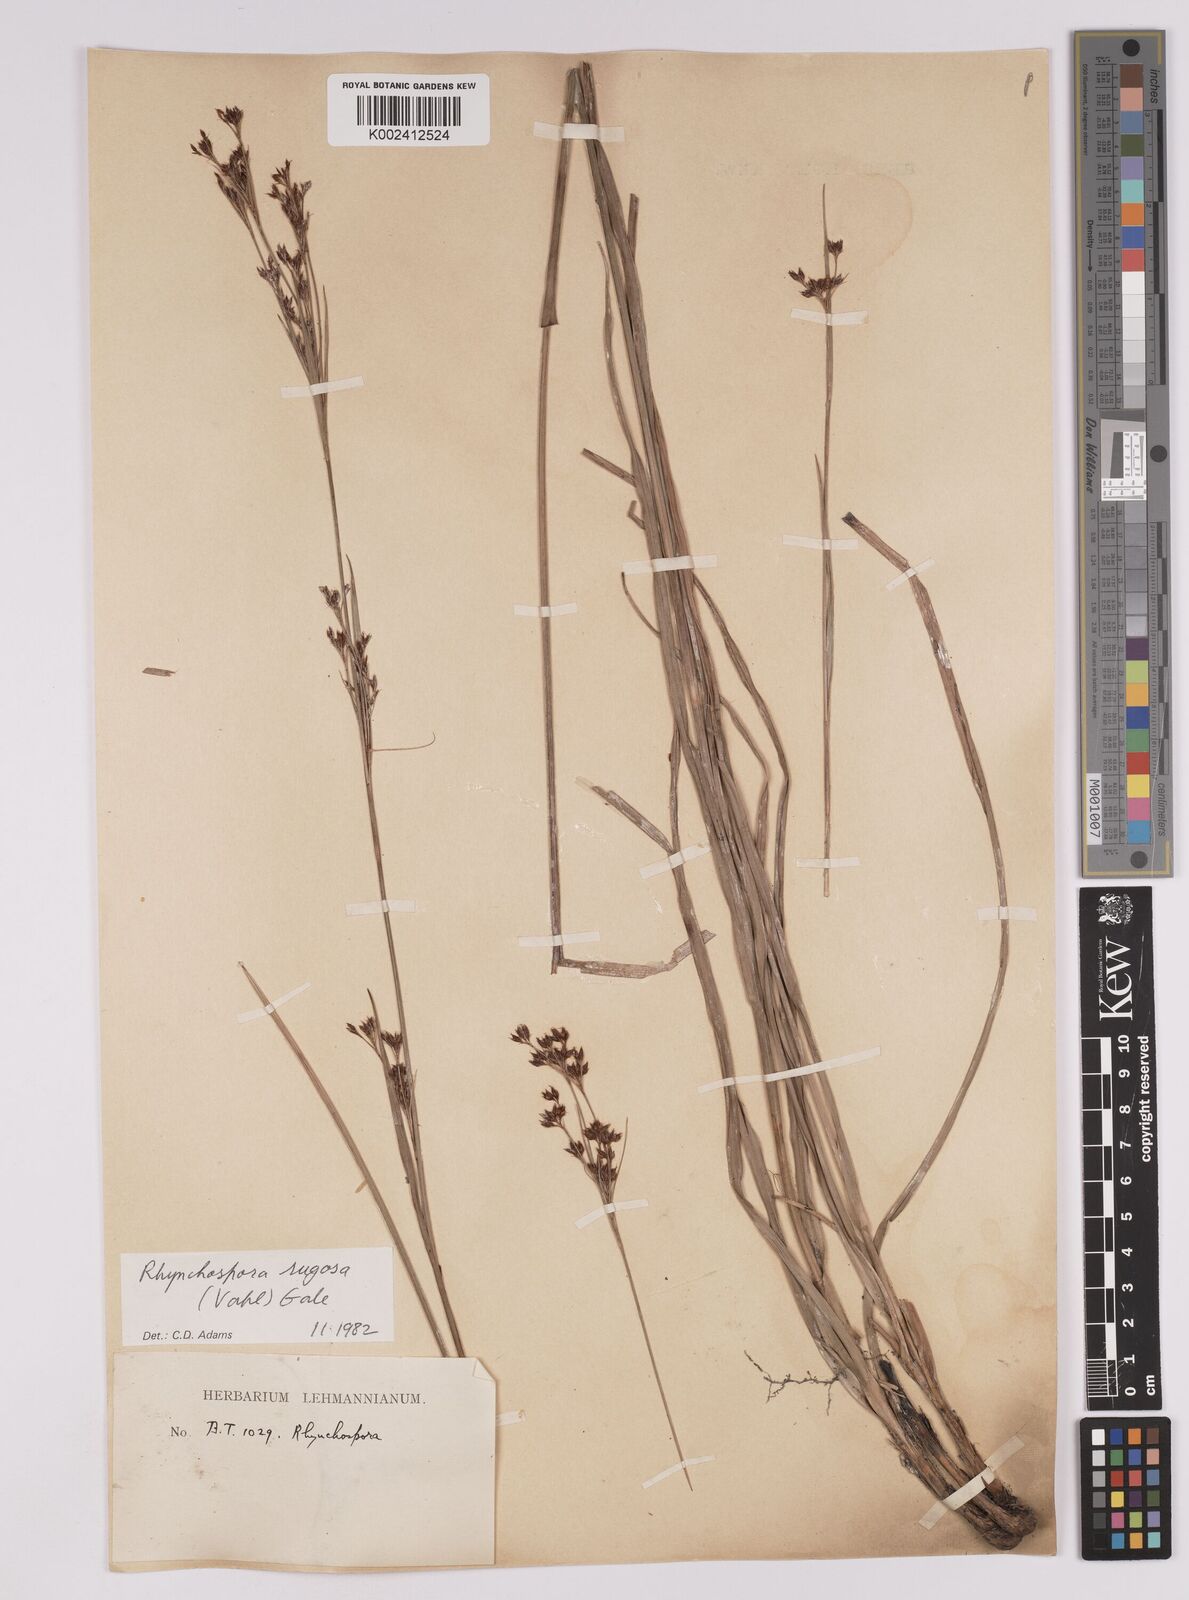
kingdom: Plantae
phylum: Tracheophyta
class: Liliopsida
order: Poales
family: Cyperaceae
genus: Rhynchospora
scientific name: Rhynchospora rugosa
